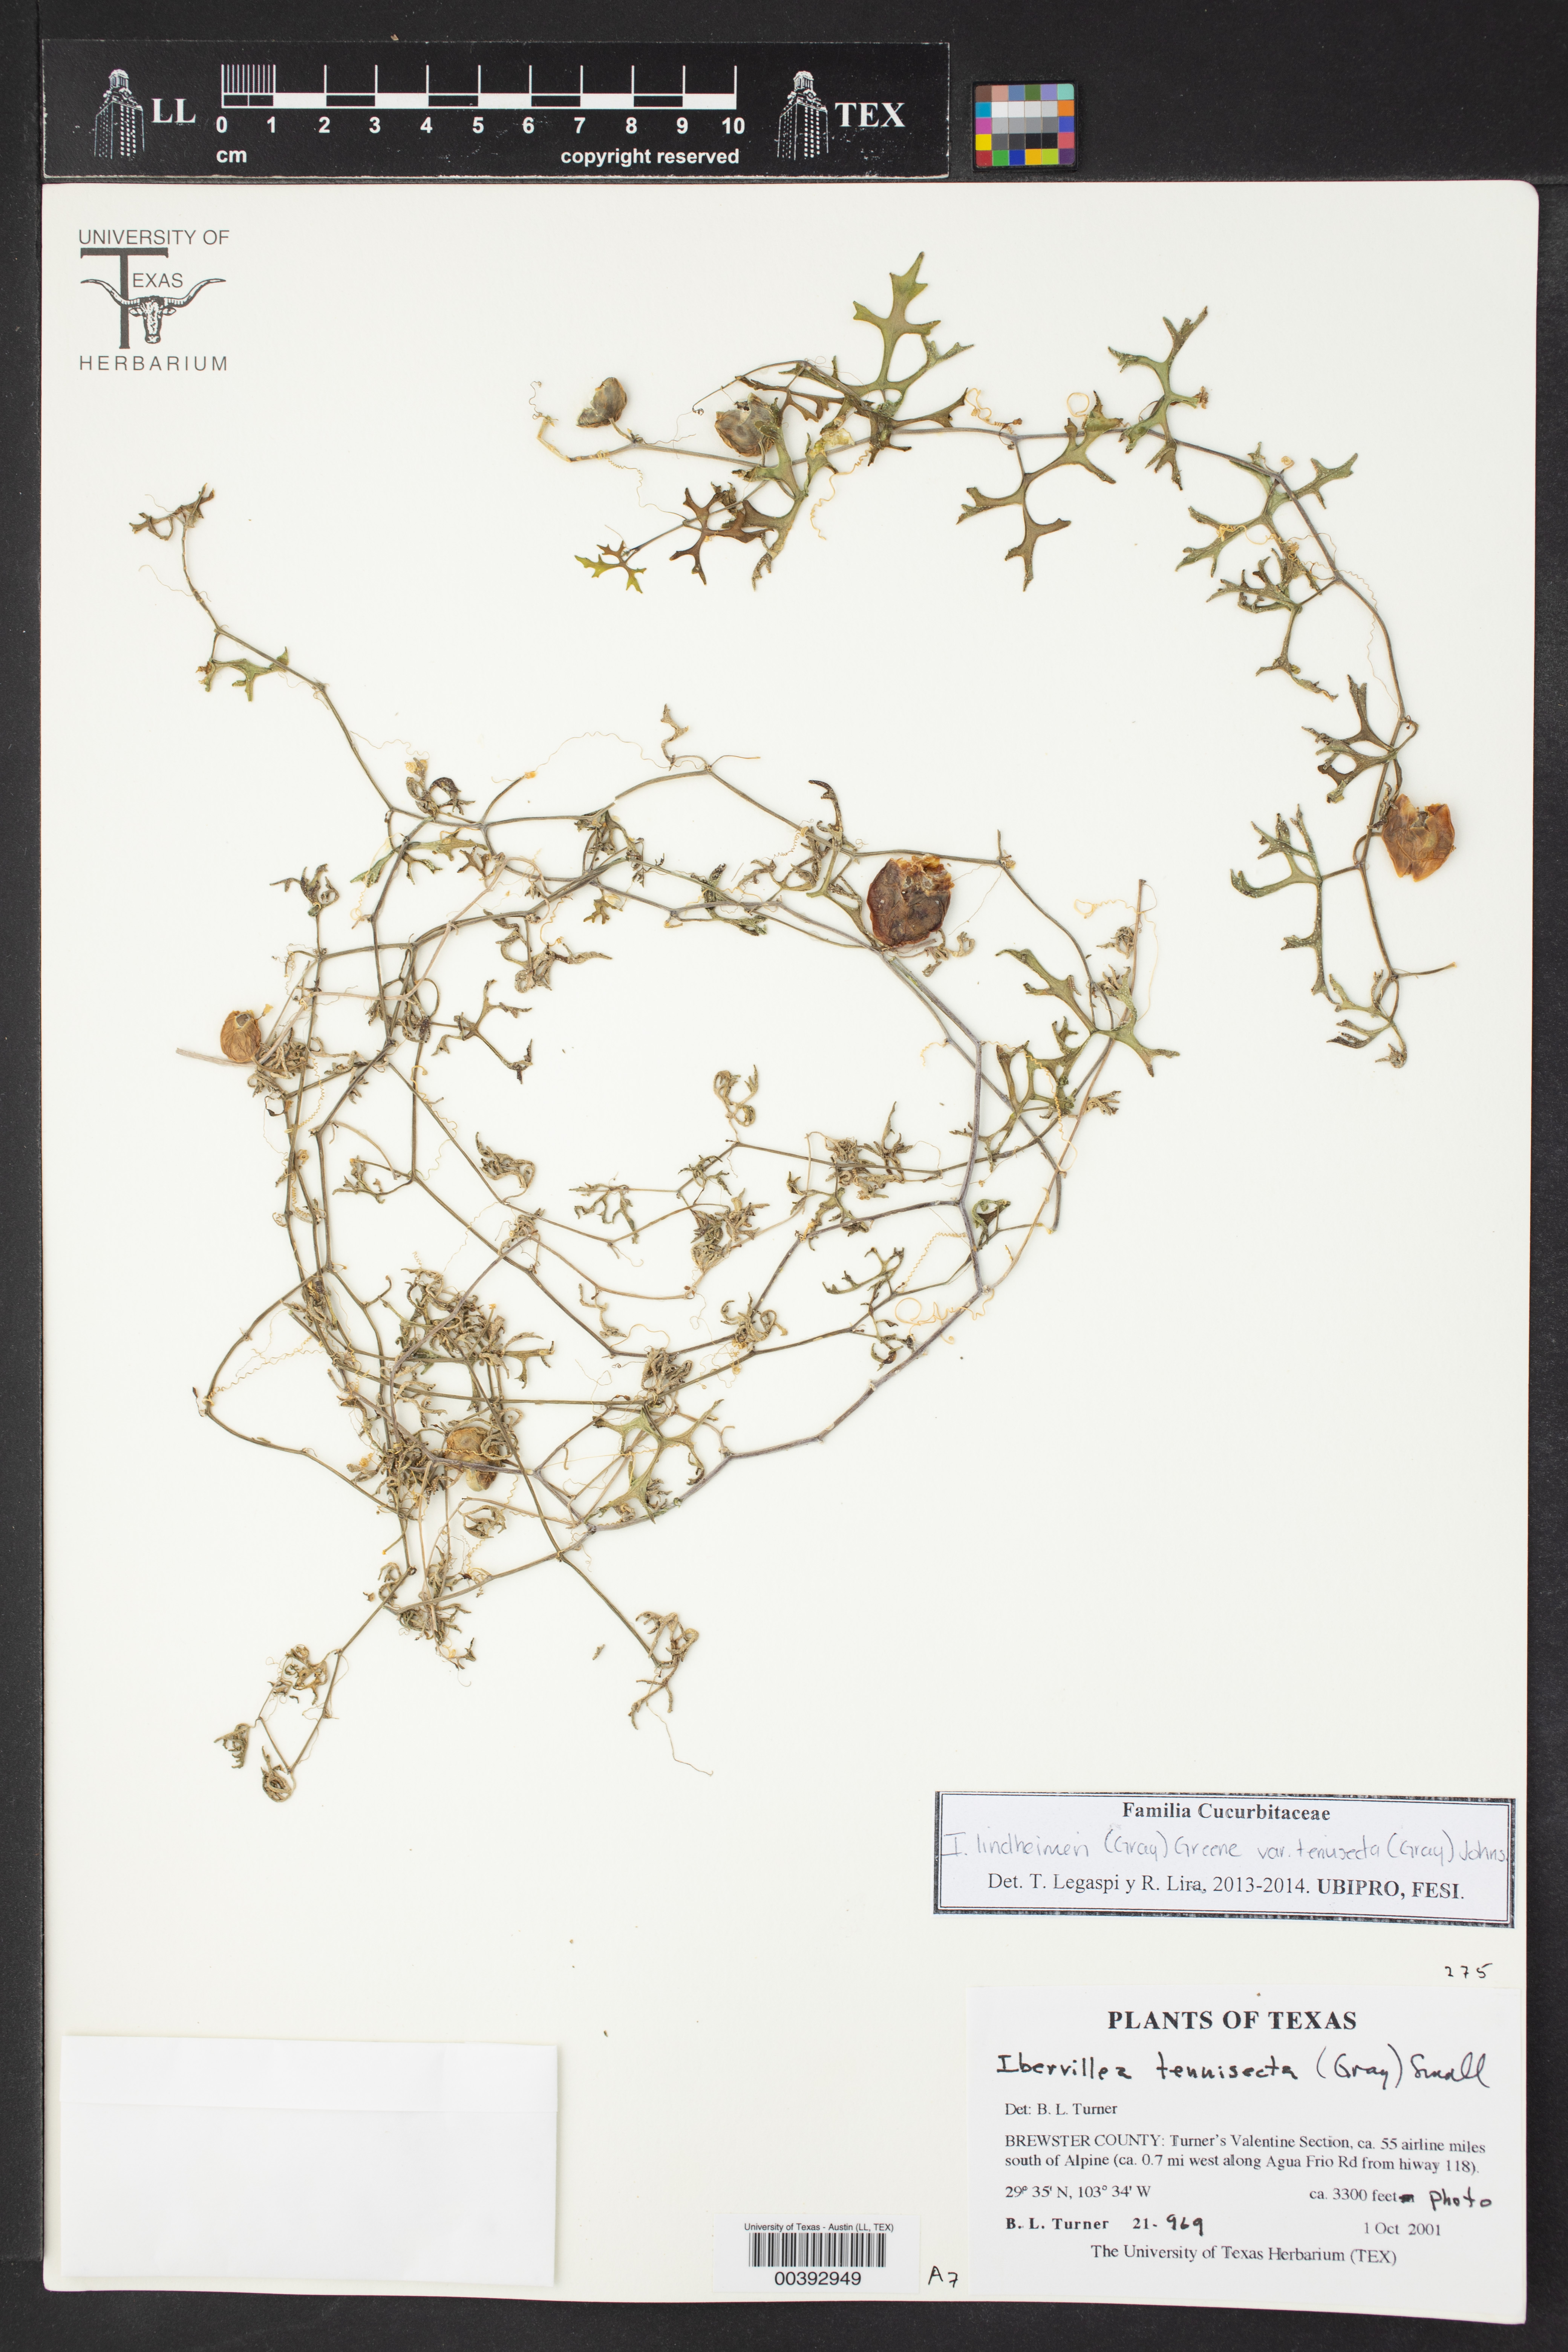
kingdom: Plantae
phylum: Tracheophyta
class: Magnoliopsida
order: Cucurbitales
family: Cucurbitaceae
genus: Ibervillea
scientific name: Ibervillea tenuisecta
